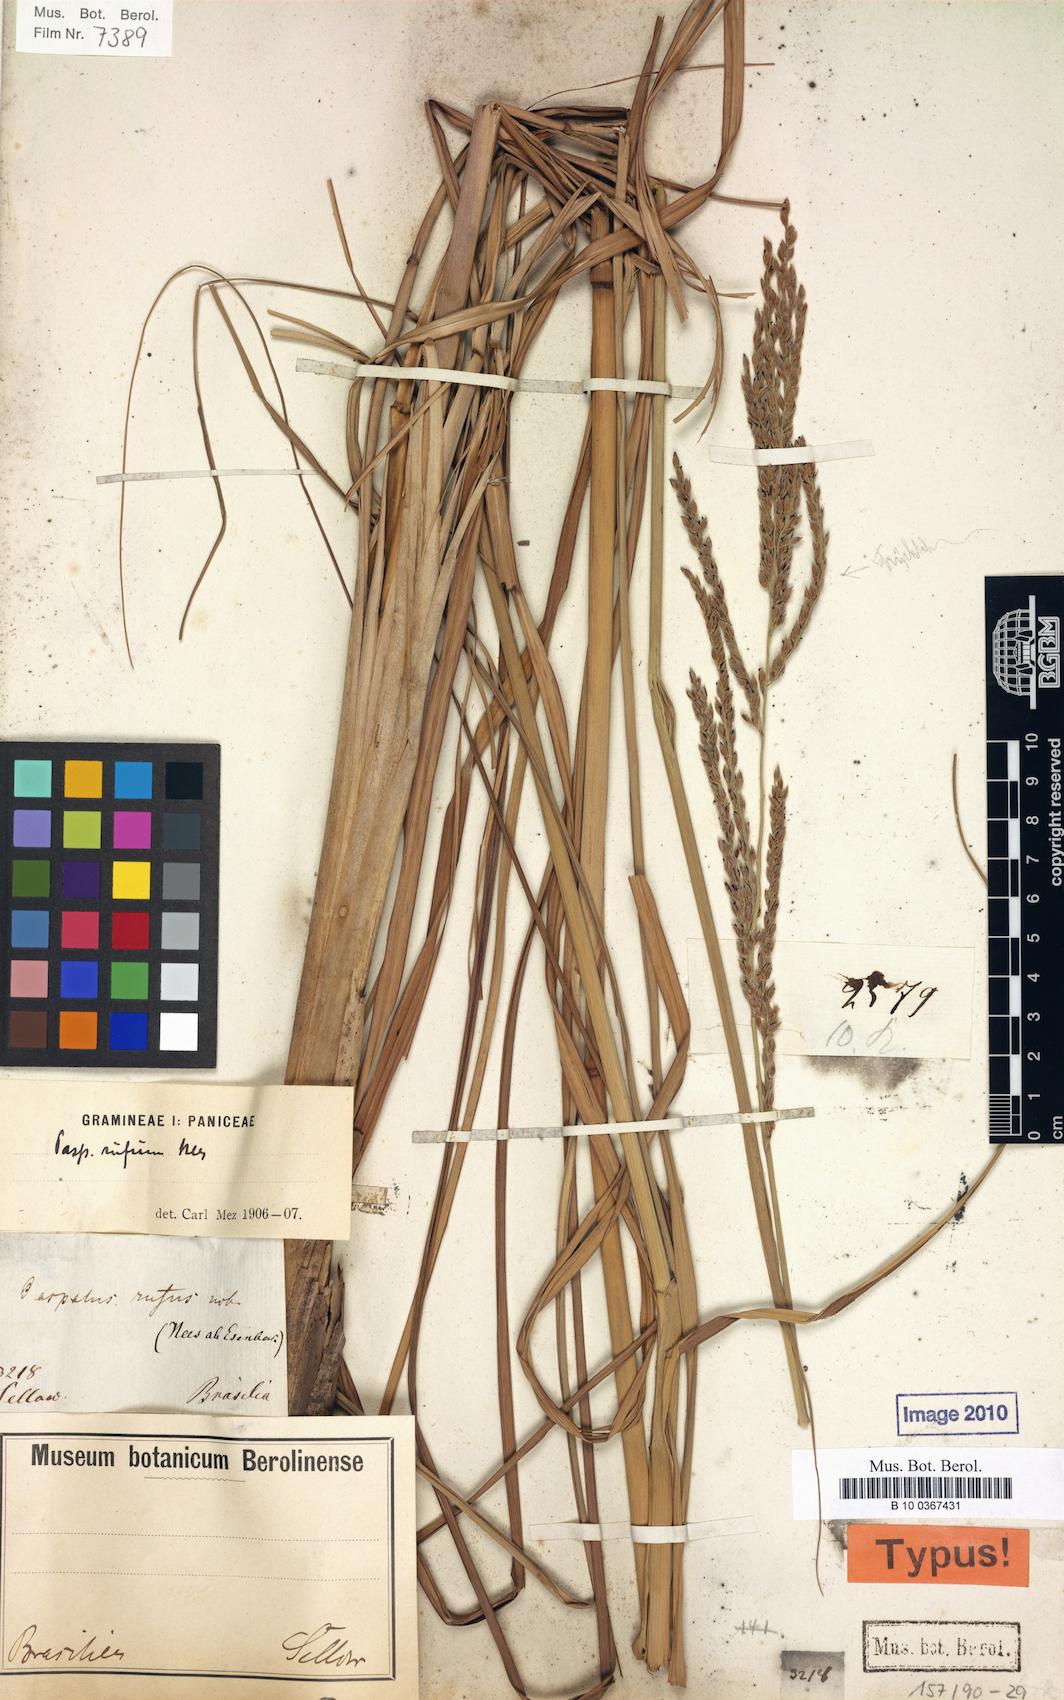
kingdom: Plantae
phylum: Tracheophyta
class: Liliopsida
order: Poales
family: Poaceae
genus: Paspalum
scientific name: Paspalum rufum
